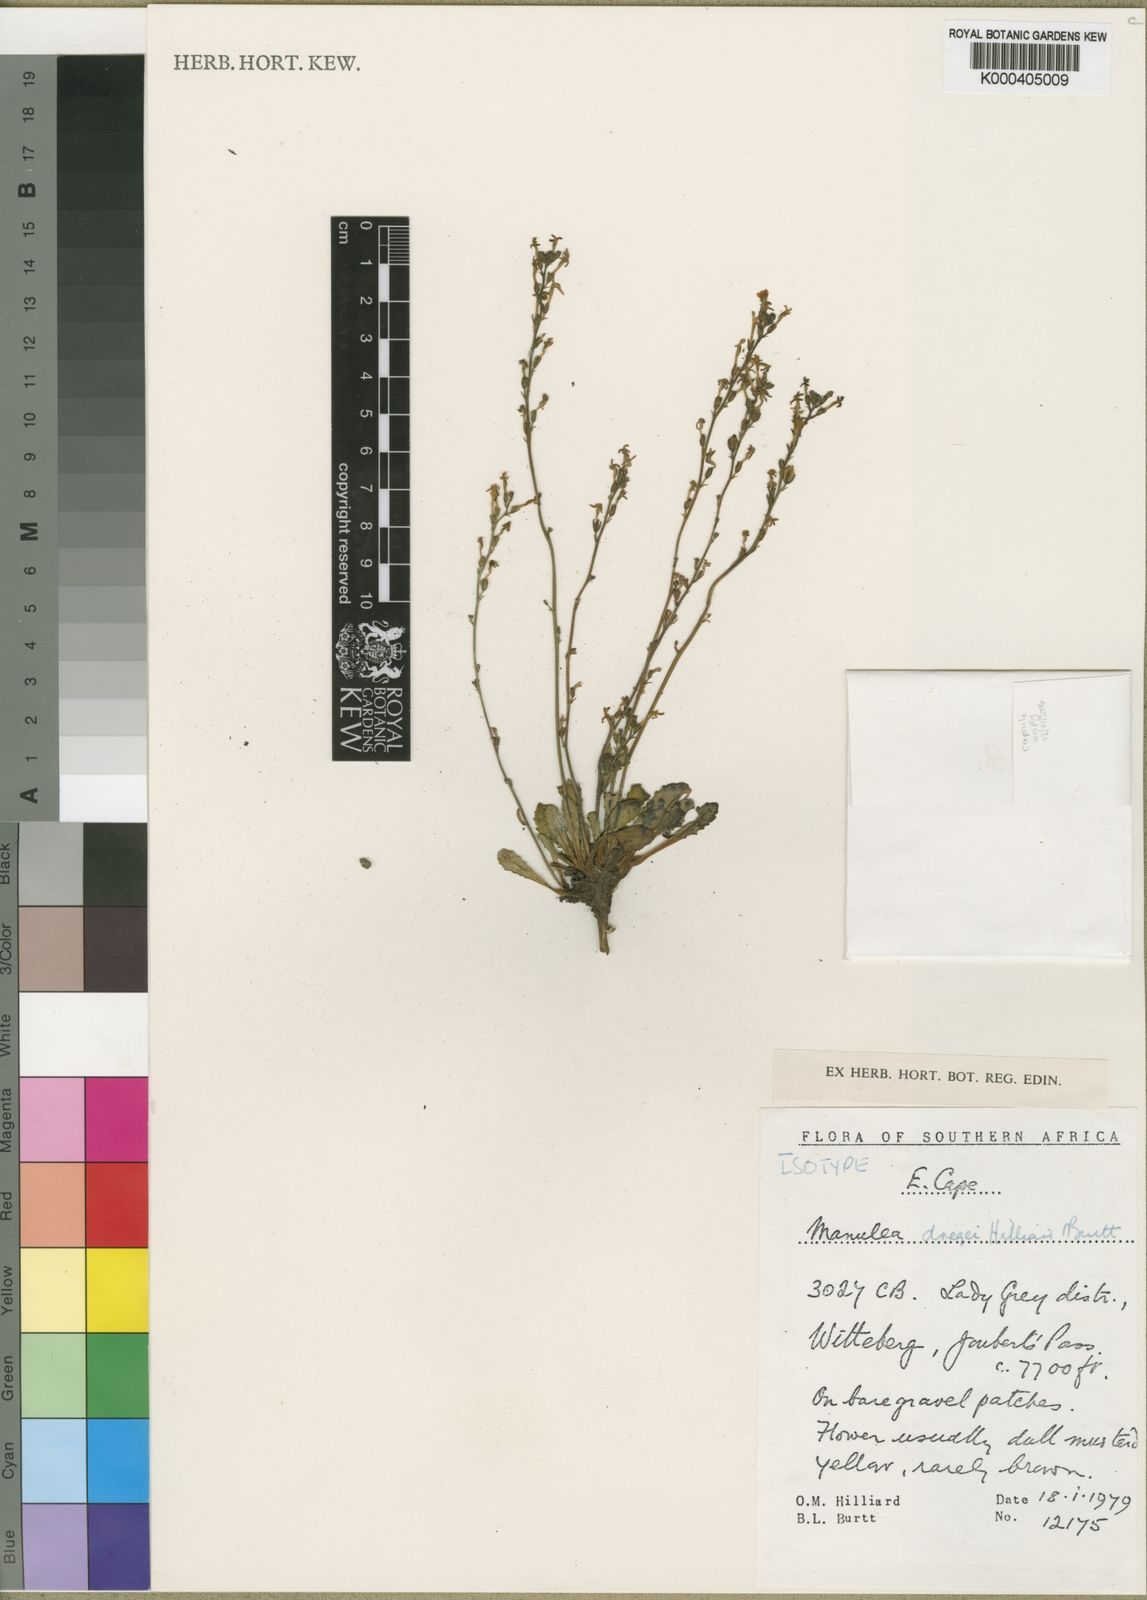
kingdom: Plantae
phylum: Tracheophyta
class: Magnoliopsida
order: Lamiales
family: Scrophulariaceae
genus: Manulea
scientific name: Manulea dregei
